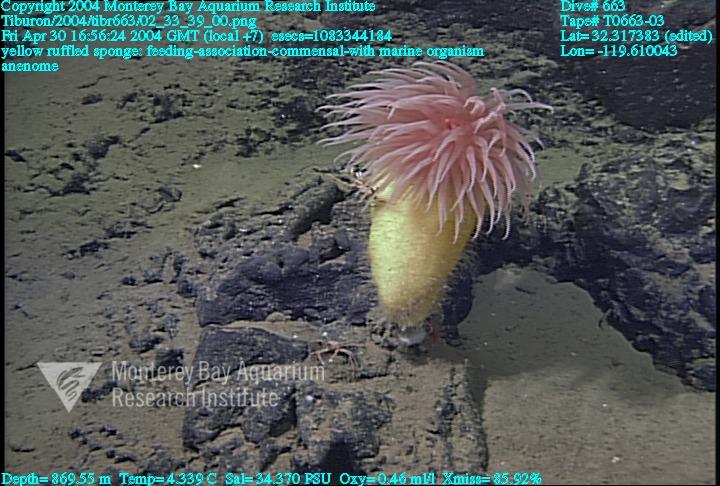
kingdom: Animalia
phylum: Porifera
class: Hexactinellida
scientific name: Hexactinellida
